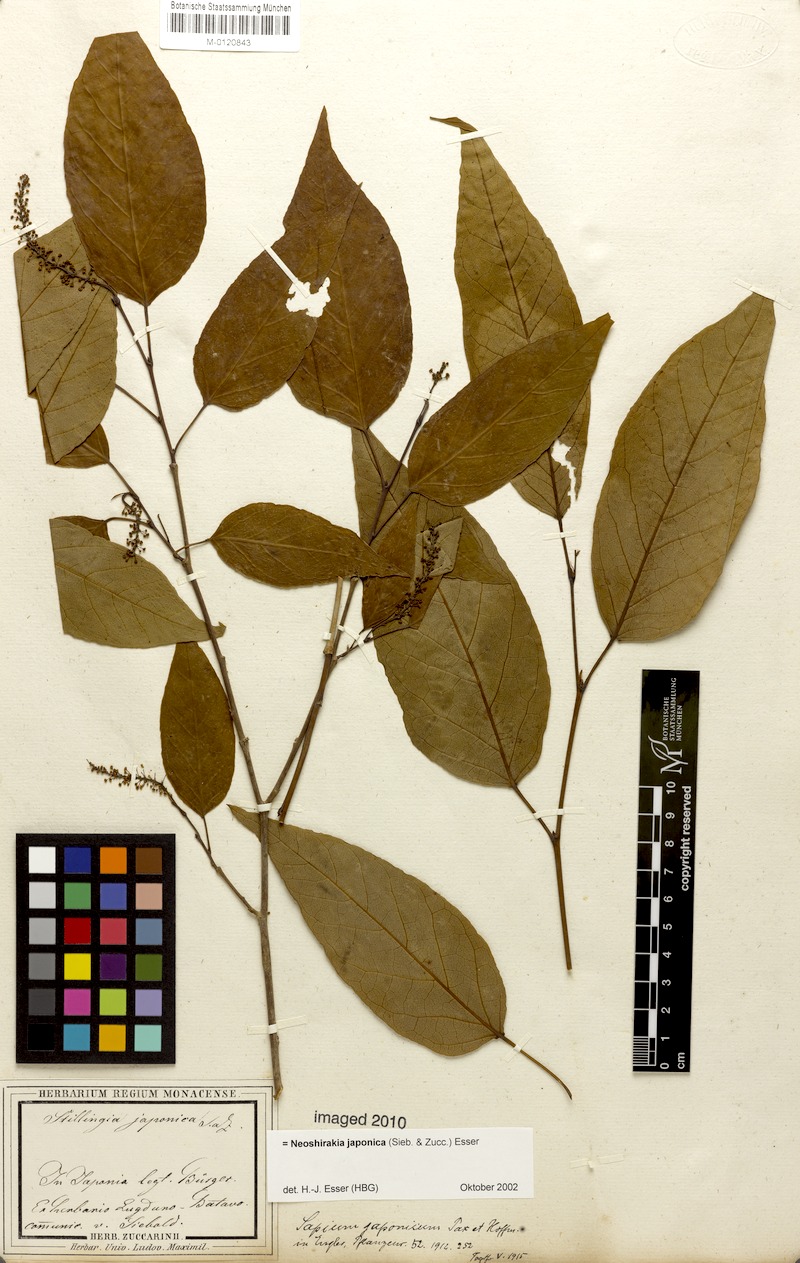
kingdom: Plantae
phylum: Tracheophyta
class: Magnoliopsida
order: Malpighiales
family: Euphorbiaceae
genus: Neoshirakia
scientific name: Neoshirakia japonica
